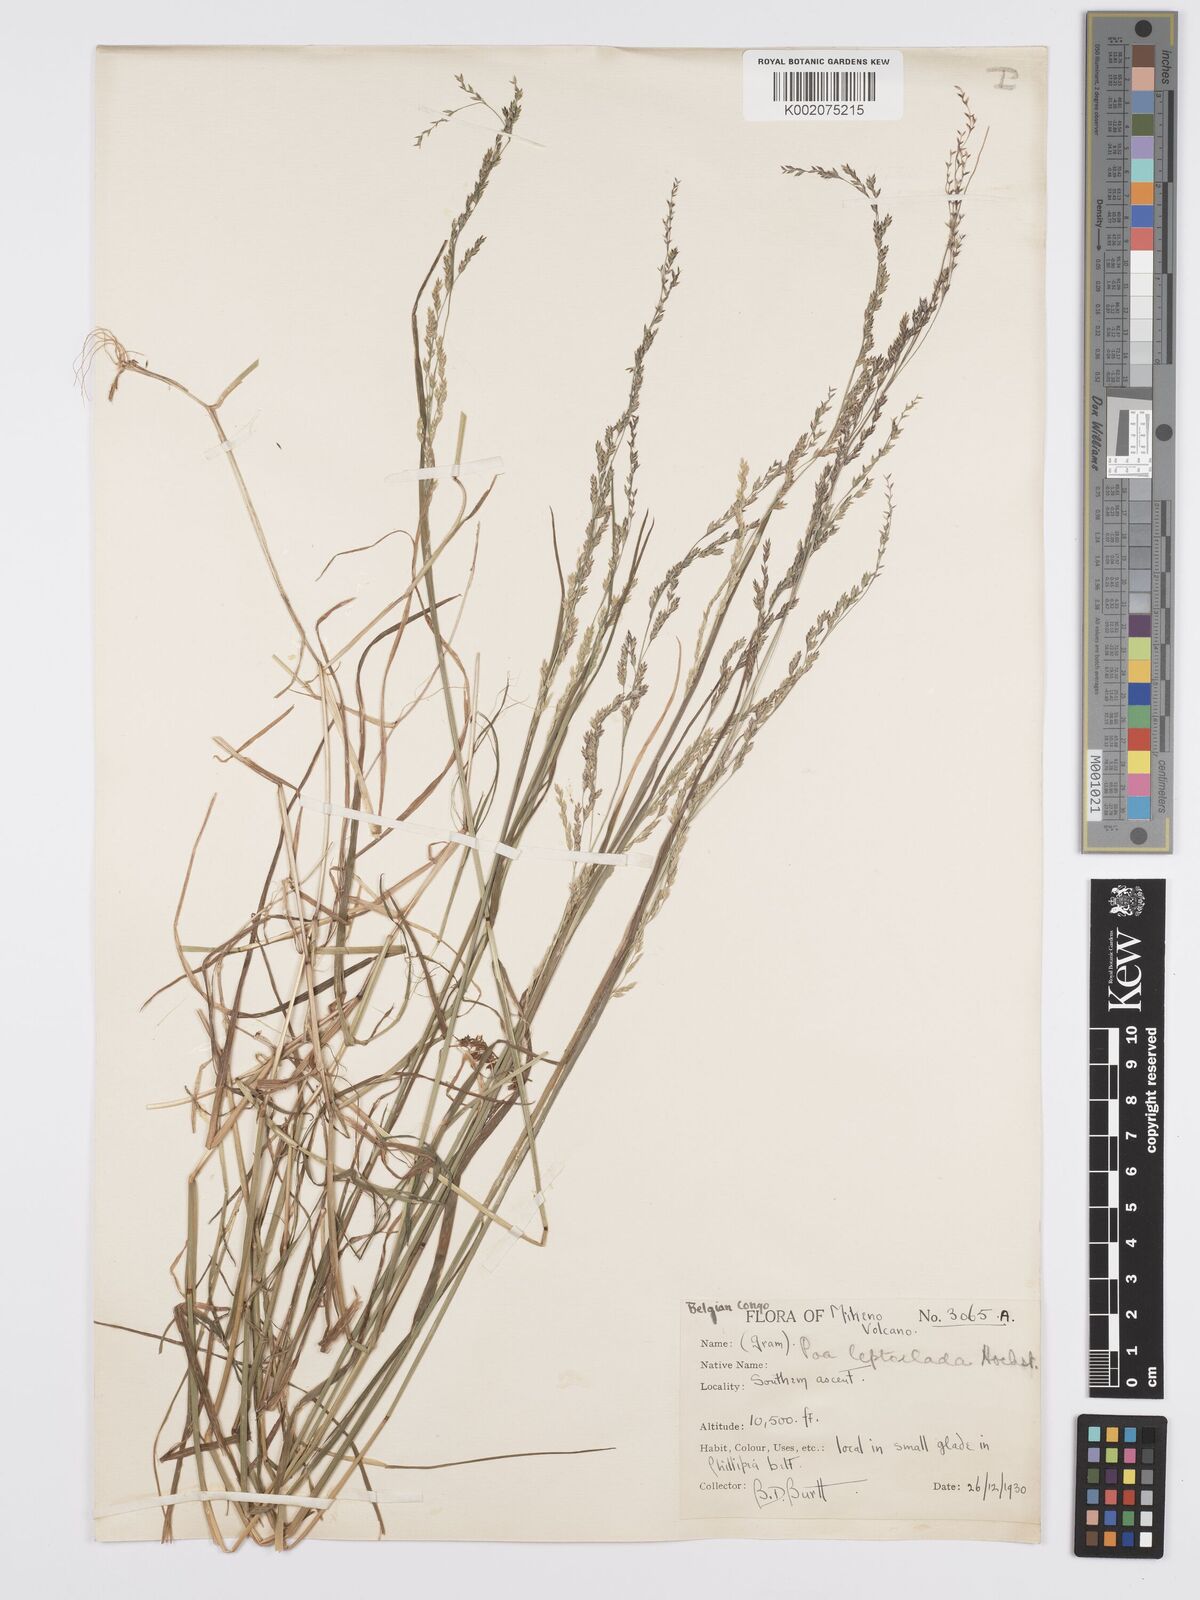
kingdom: Plantae
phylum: Tracheophyta
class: Liliopsida
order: Poales
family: Poaceae
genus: Poa
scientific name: Poa leptoclada
